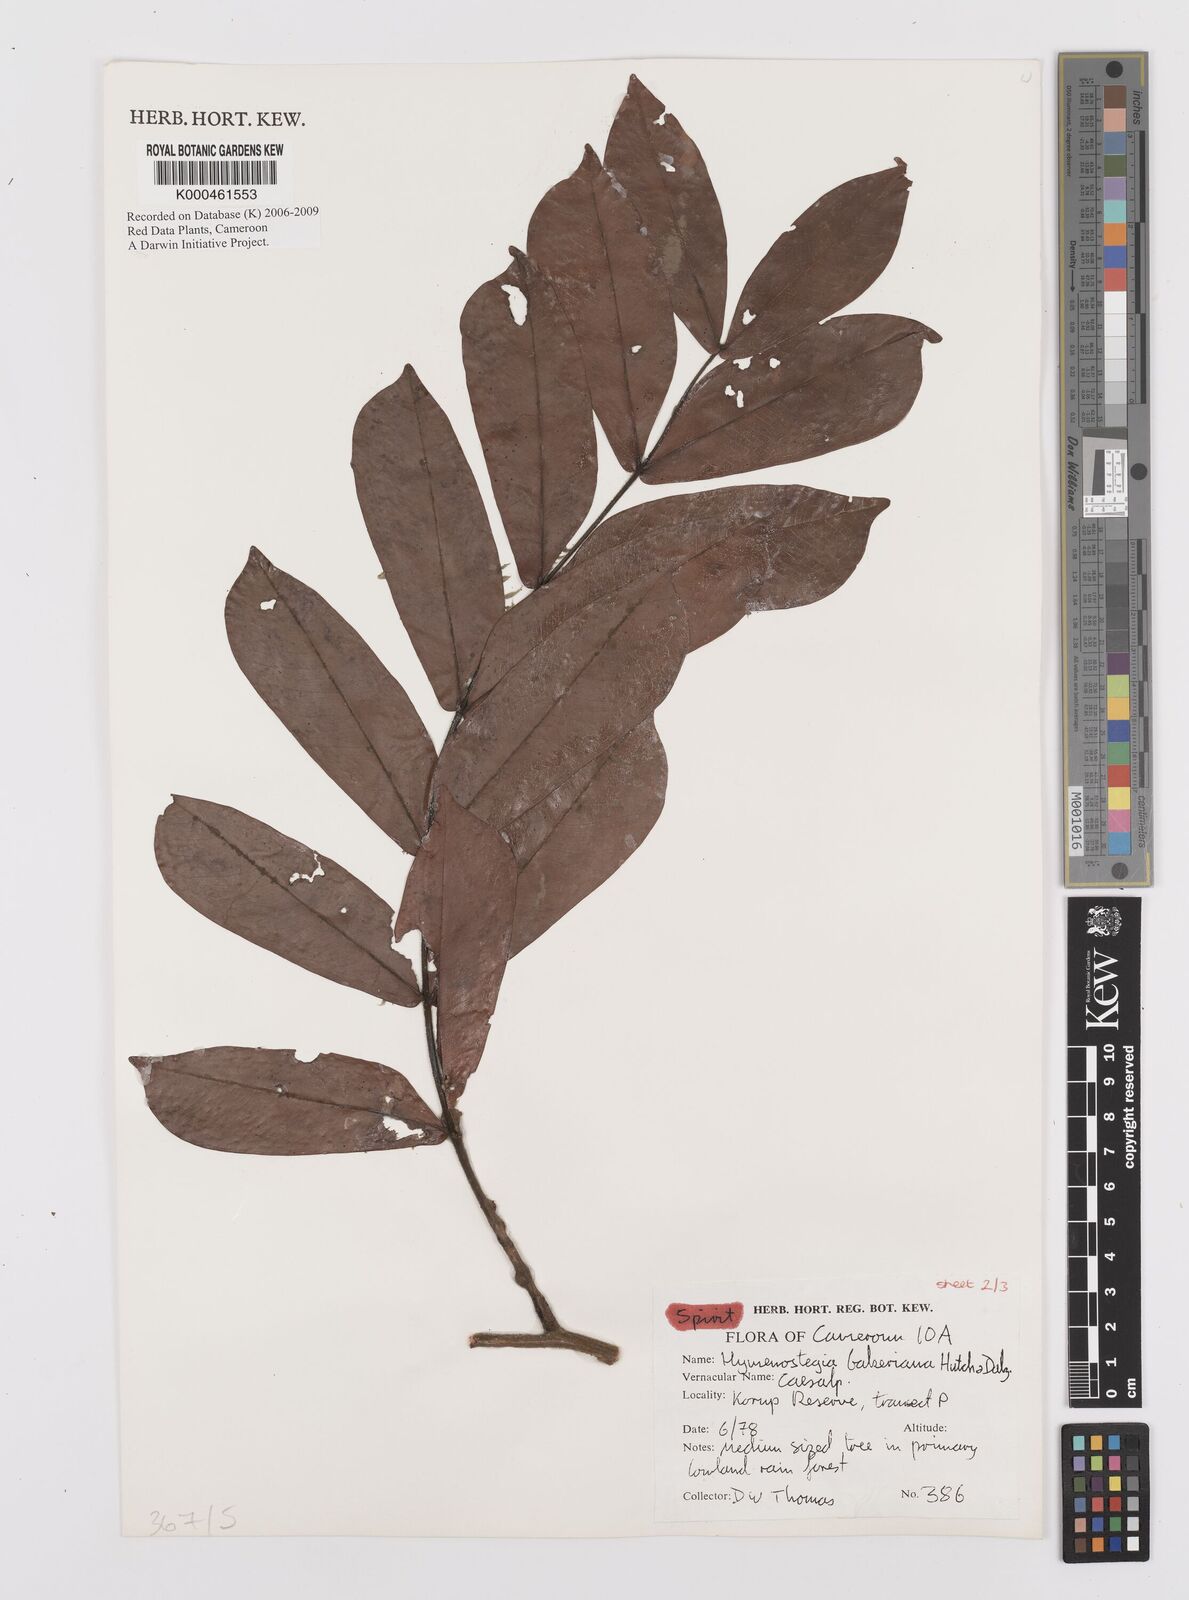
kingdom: Plantae
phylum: Tracheophyta
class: Magnoliopsida
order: Fabales
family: Fabaceae
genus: Hymenostegia
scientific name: Hymenostegia bakeriana
